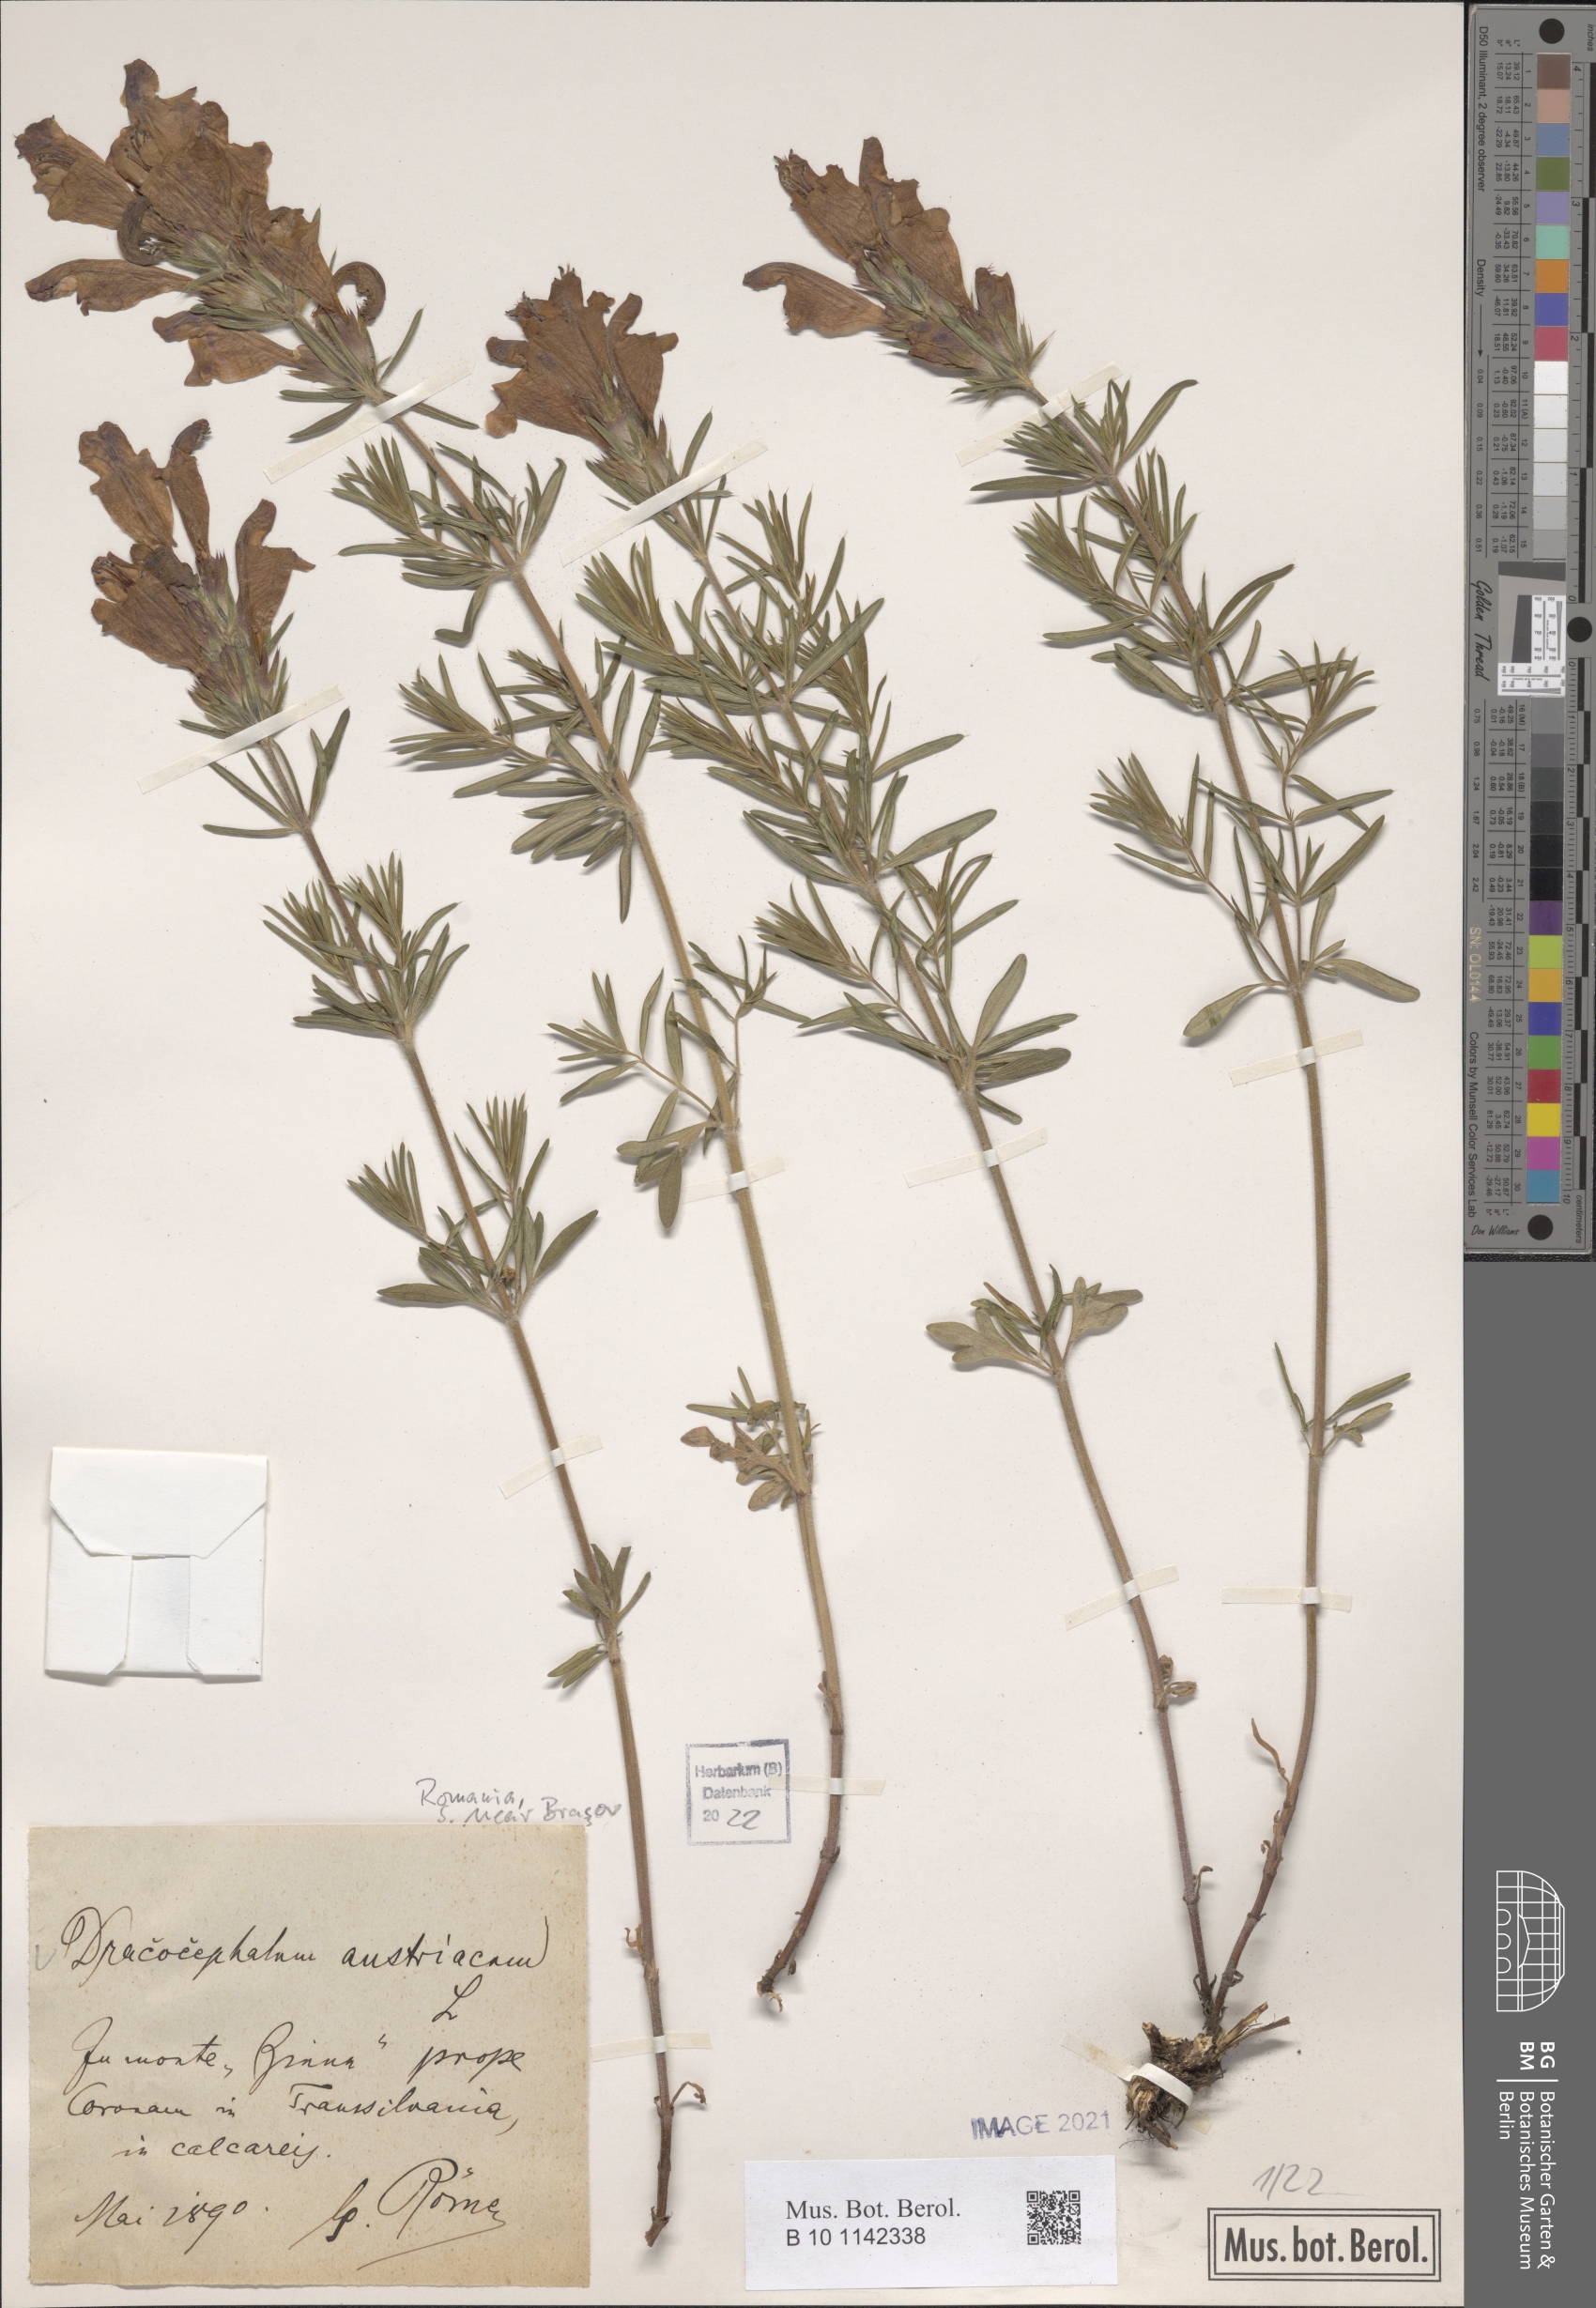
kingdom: Plantae
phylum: Tracheophyta
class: Magnoliopsida
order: Lamiales
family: Lamiaceae
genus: Dracocephalum
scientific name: Dracocephalum austriacum
